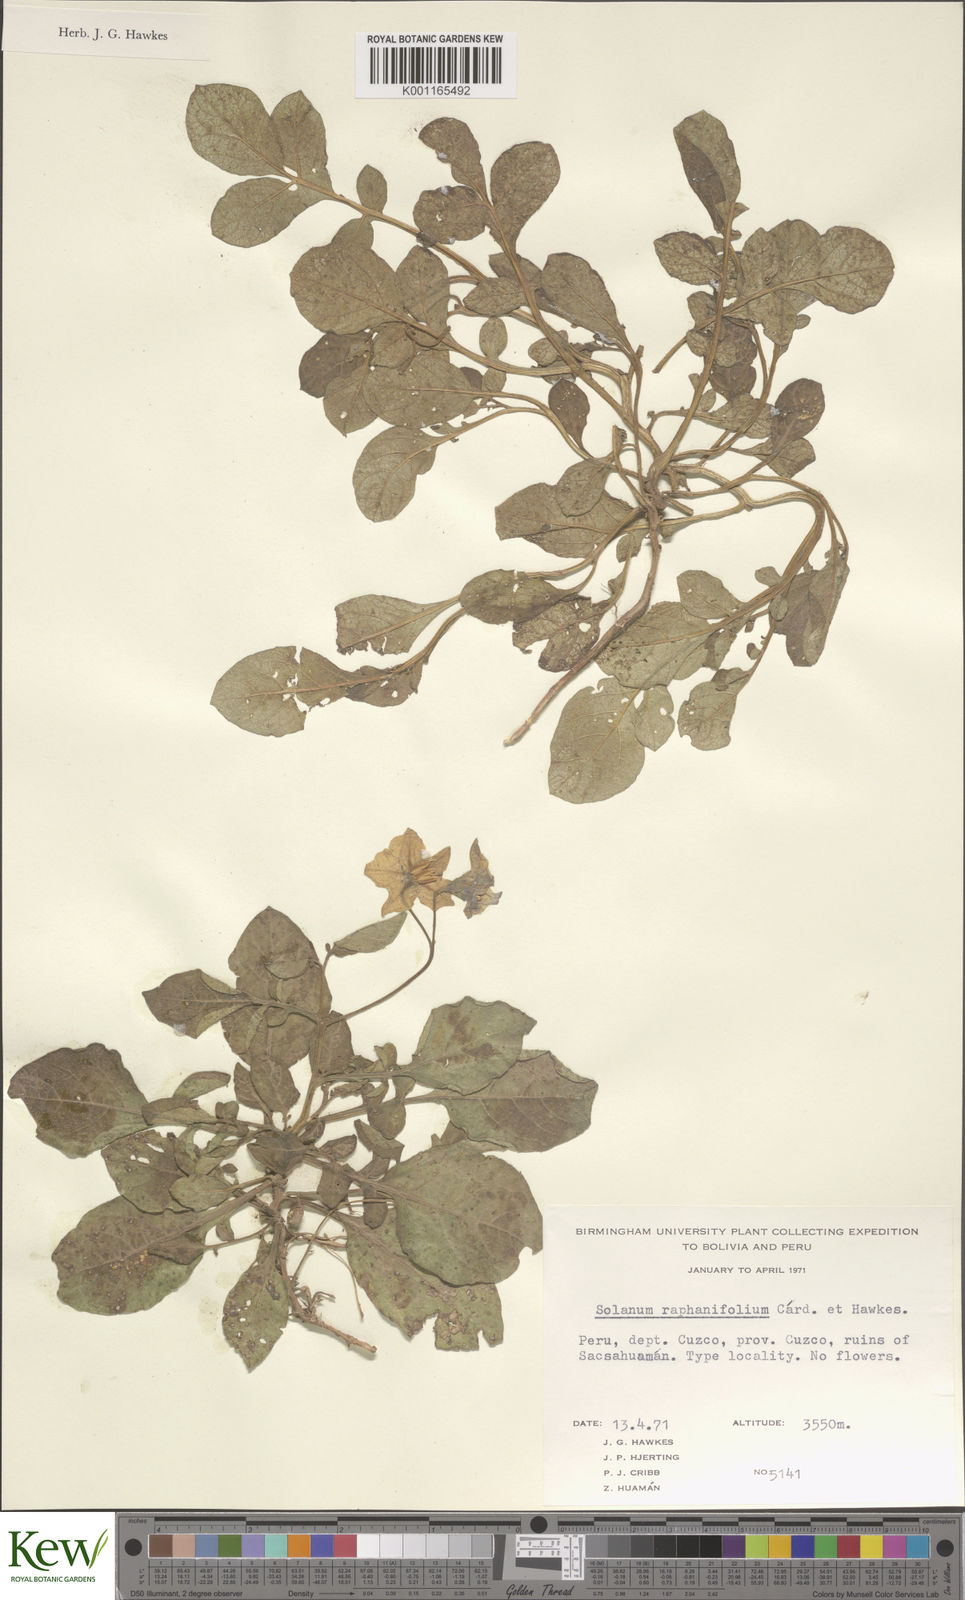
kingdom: Plantae
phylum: Tracheophyta
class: Magnoliopsida
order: Solanales
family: Solanaceae
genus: Solanum
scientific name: Solanum raphanifolium
